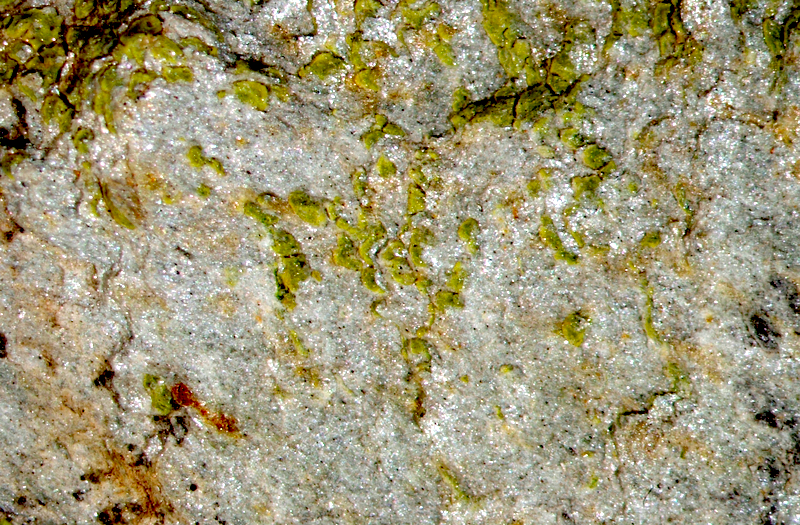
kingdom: Fungi
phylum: Ascomycota
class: Lecanoromycetes
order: Acarosporales
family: Acarosporaceae
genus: Acarospora
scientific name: Acarospora
